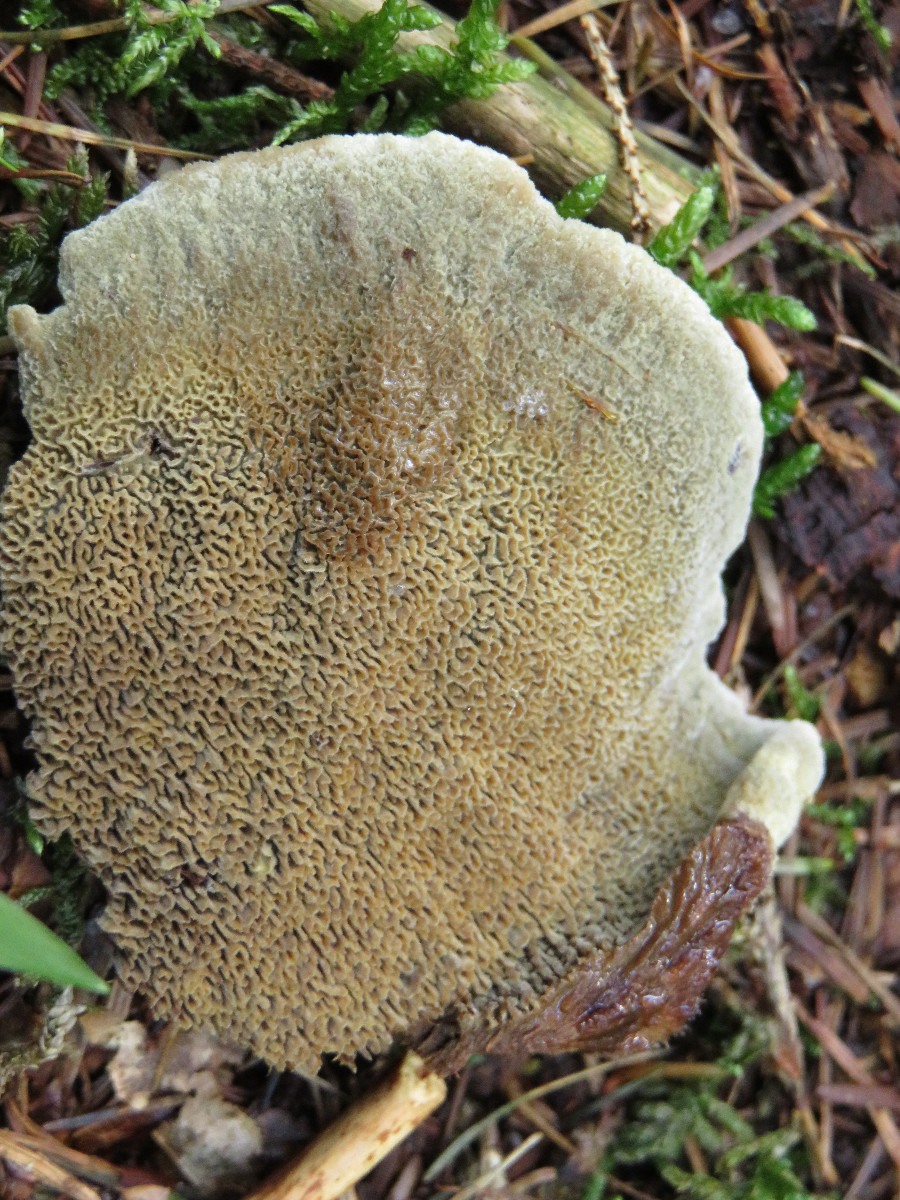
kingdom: Fungi
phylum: Basidiomycota
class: Agaricomycetes
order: Polyporales
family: Laetiporaceae
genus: Phaeolus
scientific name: Phaeolus schweinitzii
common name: brunporesvamp
